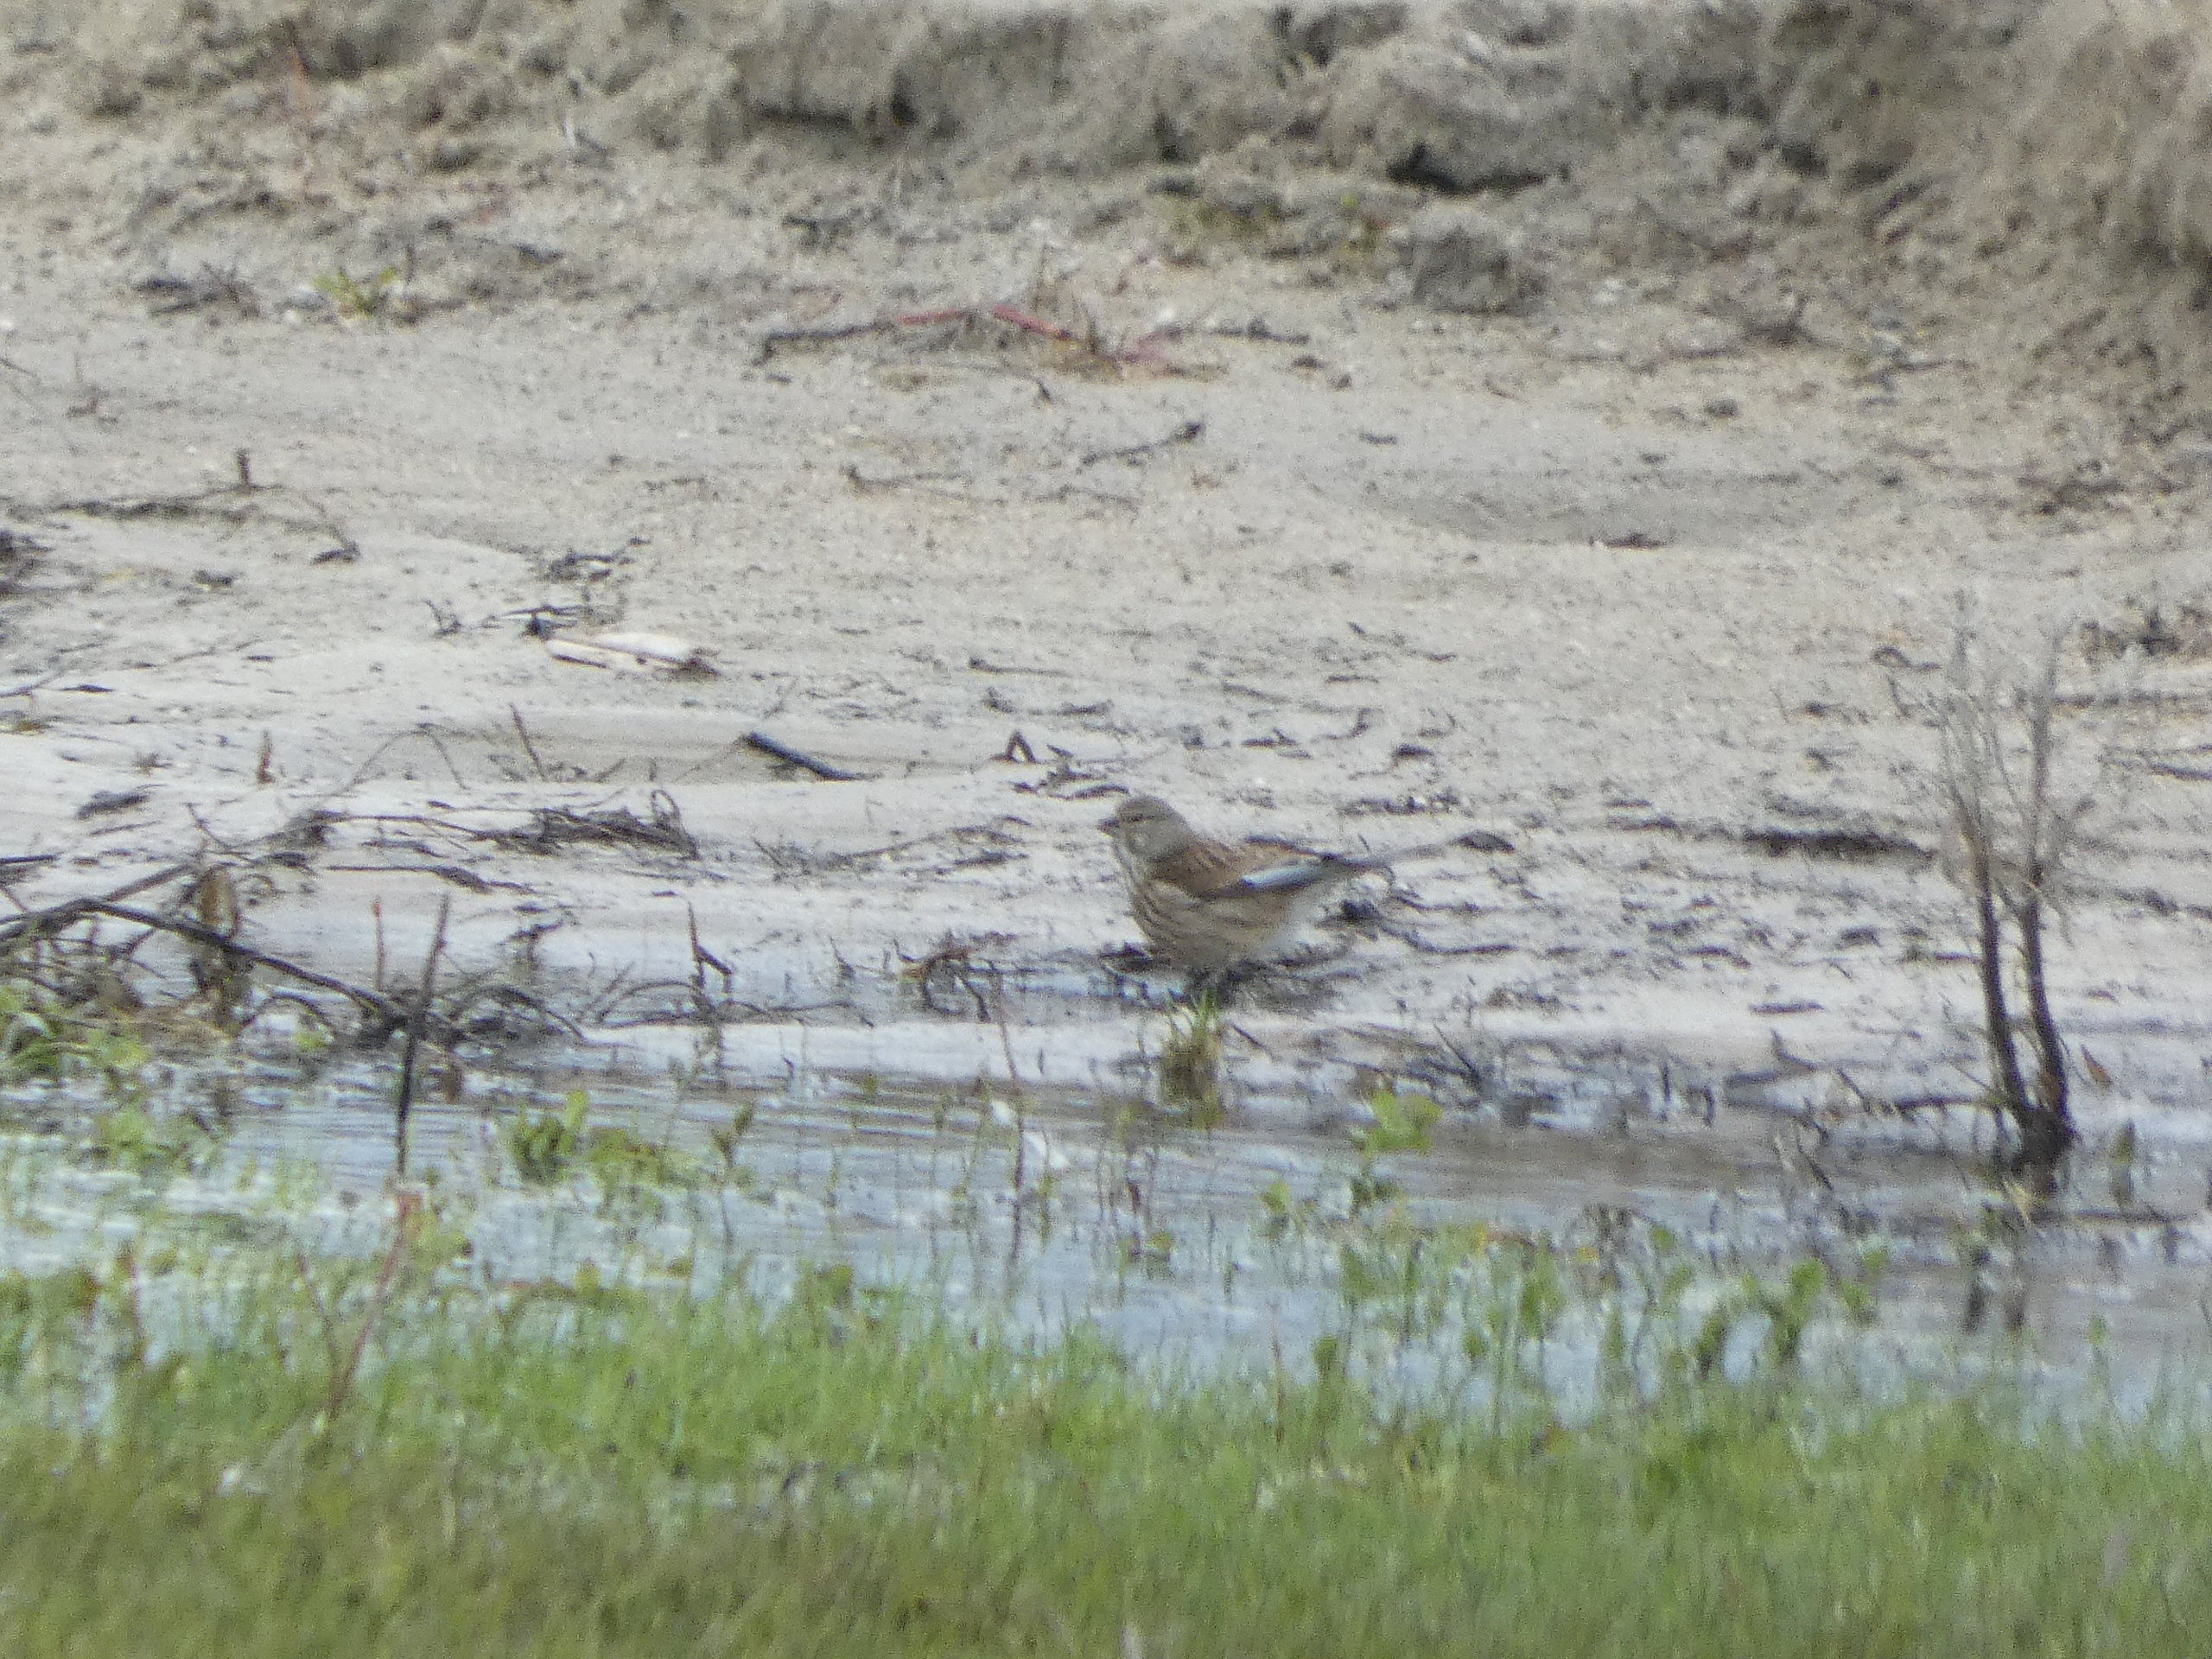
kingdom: Animalia
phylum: Chordata
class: Aves
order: Passeriformes
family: Fringillidae
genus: Linaria
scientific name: Linaria cannabina
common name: Tornirisk
